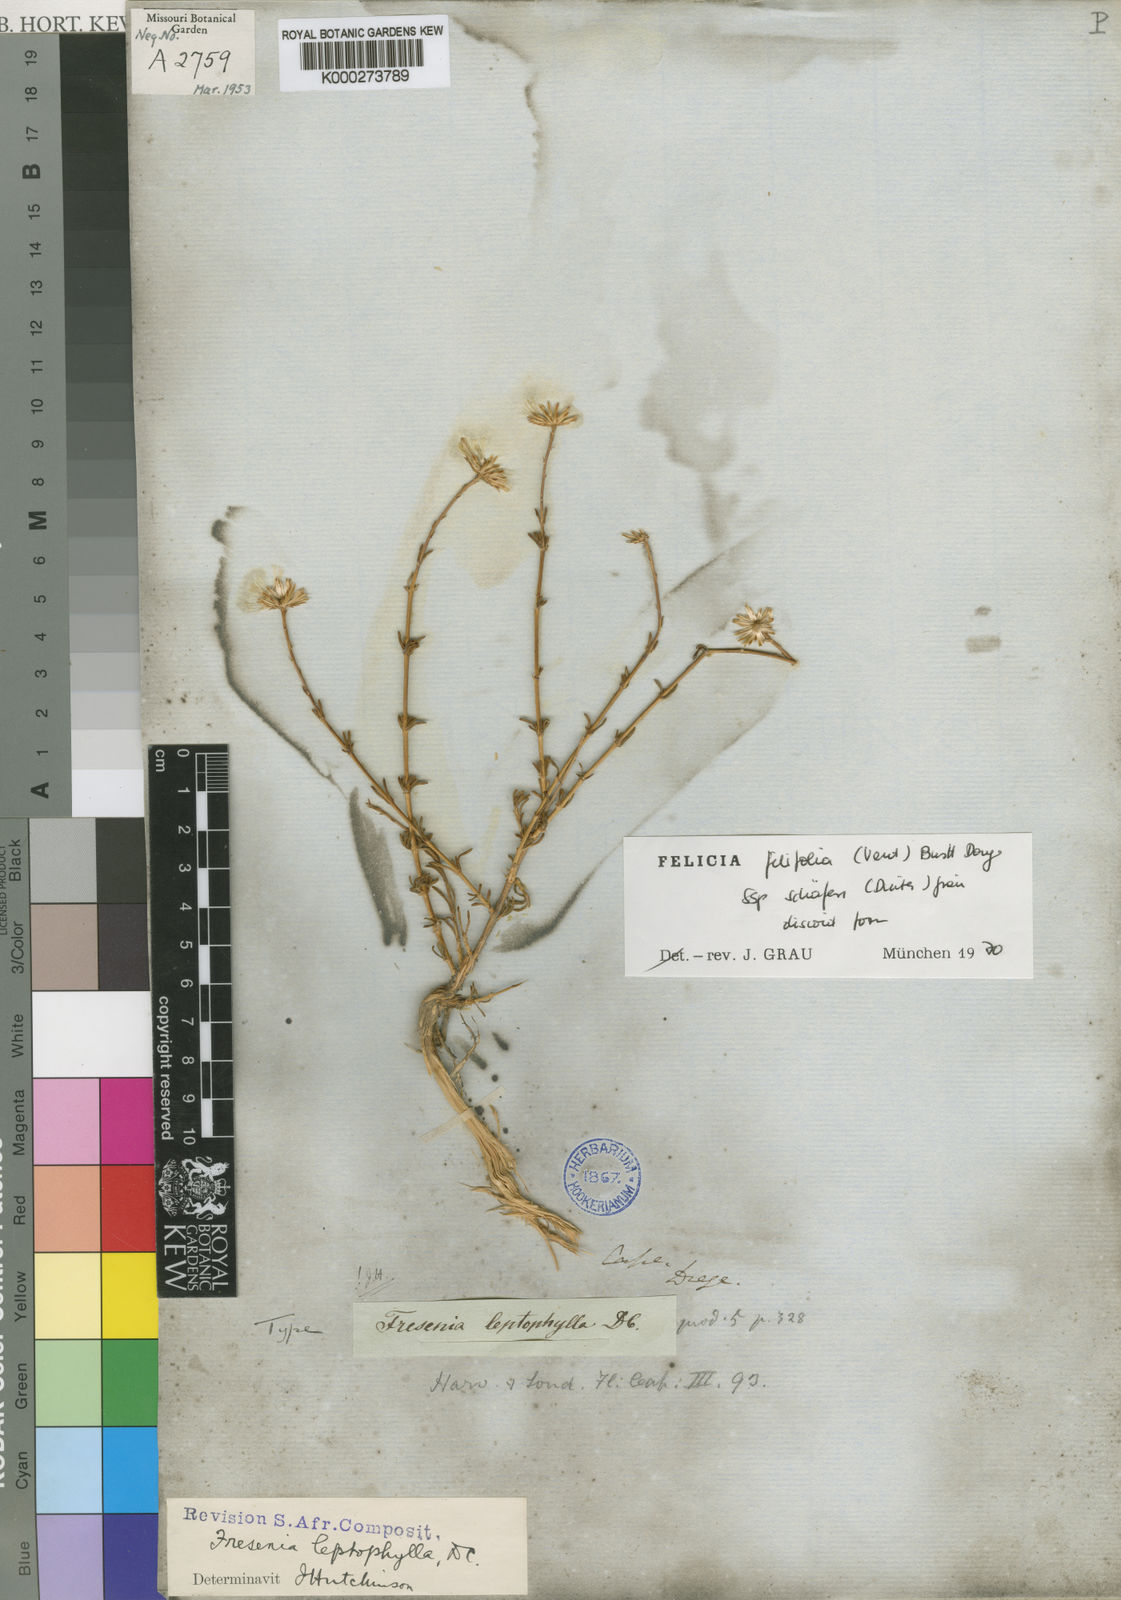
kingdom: Plantae
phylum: Tracheophyta
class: Magnoliopsida
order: Asterales
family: Asteraceae
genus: Felicia
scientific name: Felicia
